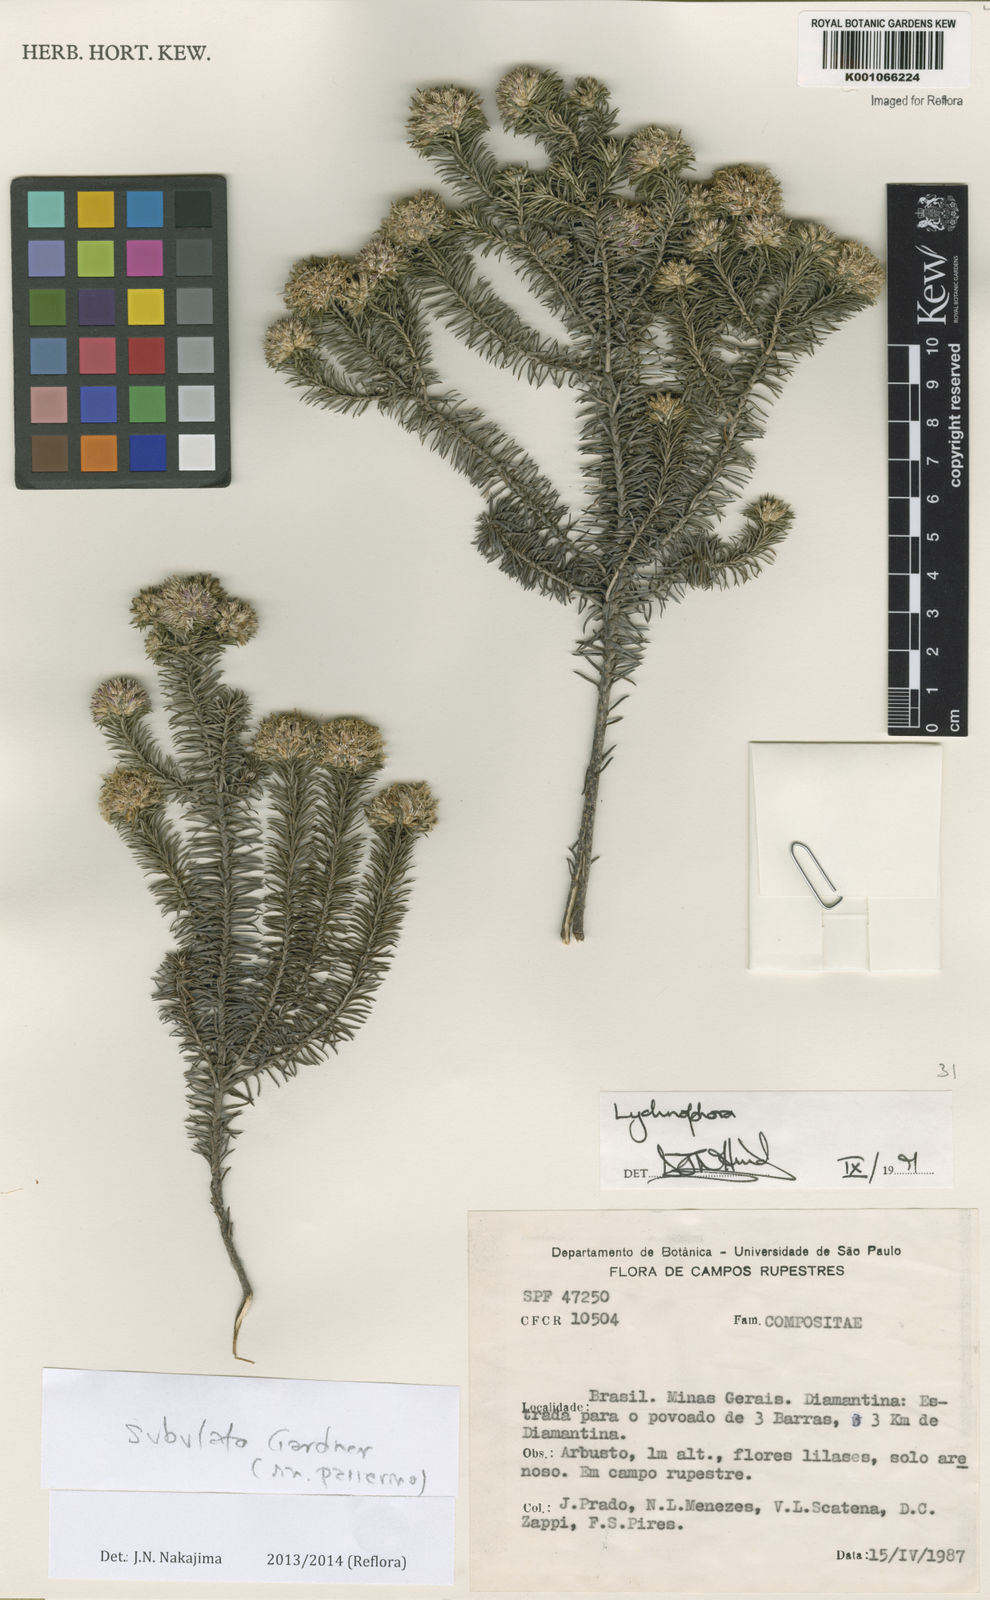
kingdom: Plantae
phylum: Tracheophyta
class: Magnoliopsida
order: Asterales
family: Asteraceae
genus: Lychnophora
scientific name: Lychnophora passerina
